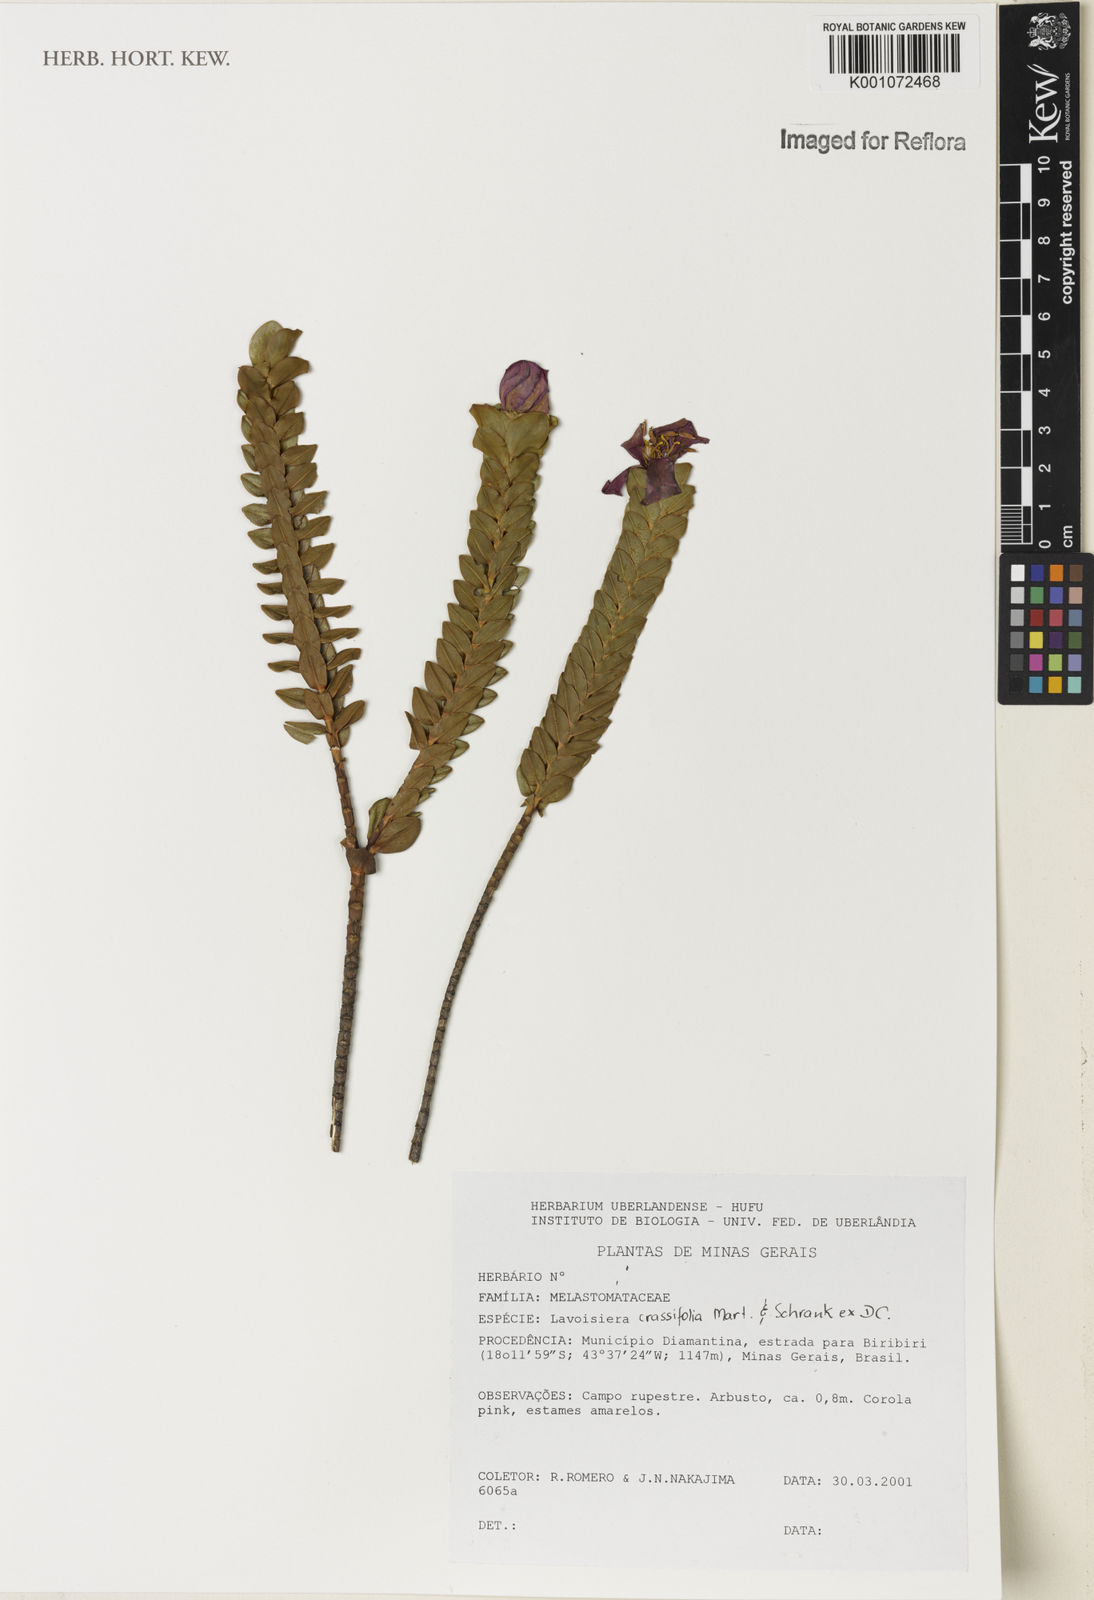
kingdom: Plantae
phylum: Tracheophyta
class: Magnoliopsida
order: Myrtales
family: Melastomataceae
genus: Microlicia
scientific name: Microlicia crassifolia
